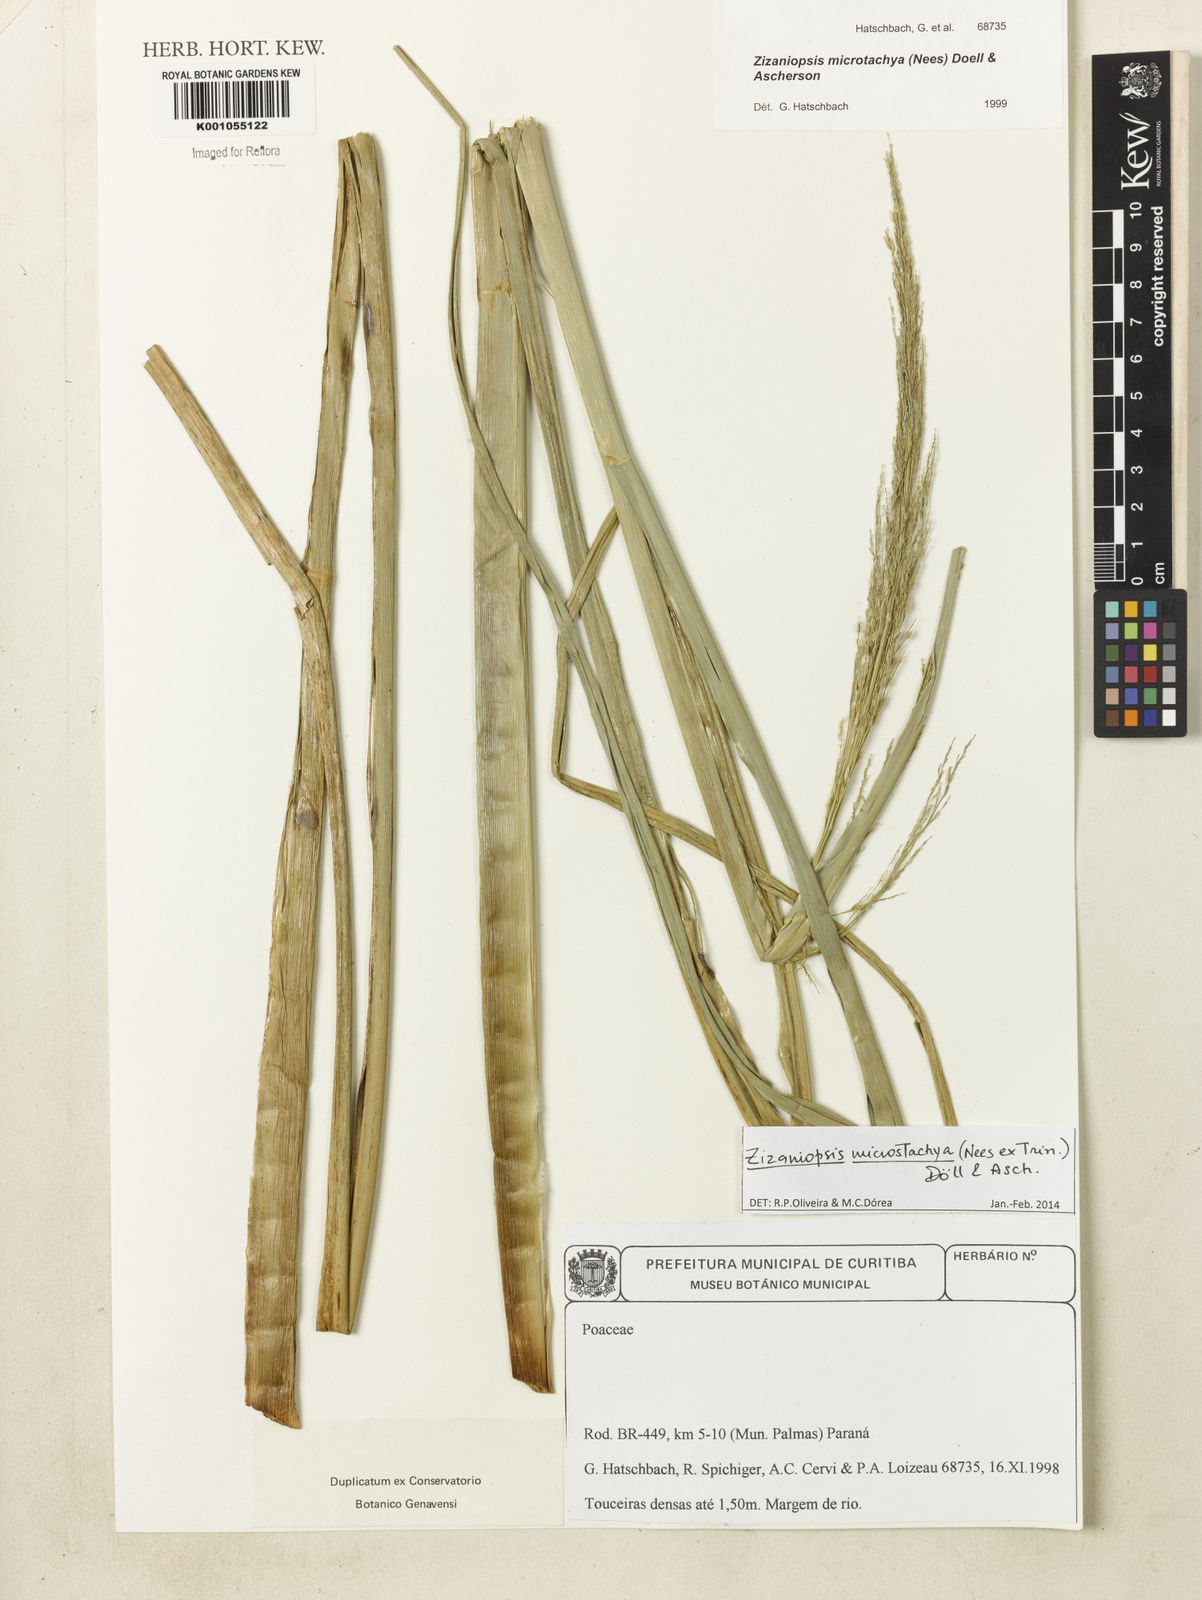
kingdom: Plantae
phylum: Tracheophyta
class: Liliopsida
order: Poales
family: Poaceae
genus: Zizaniopsis
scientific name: Zizaniopsis
